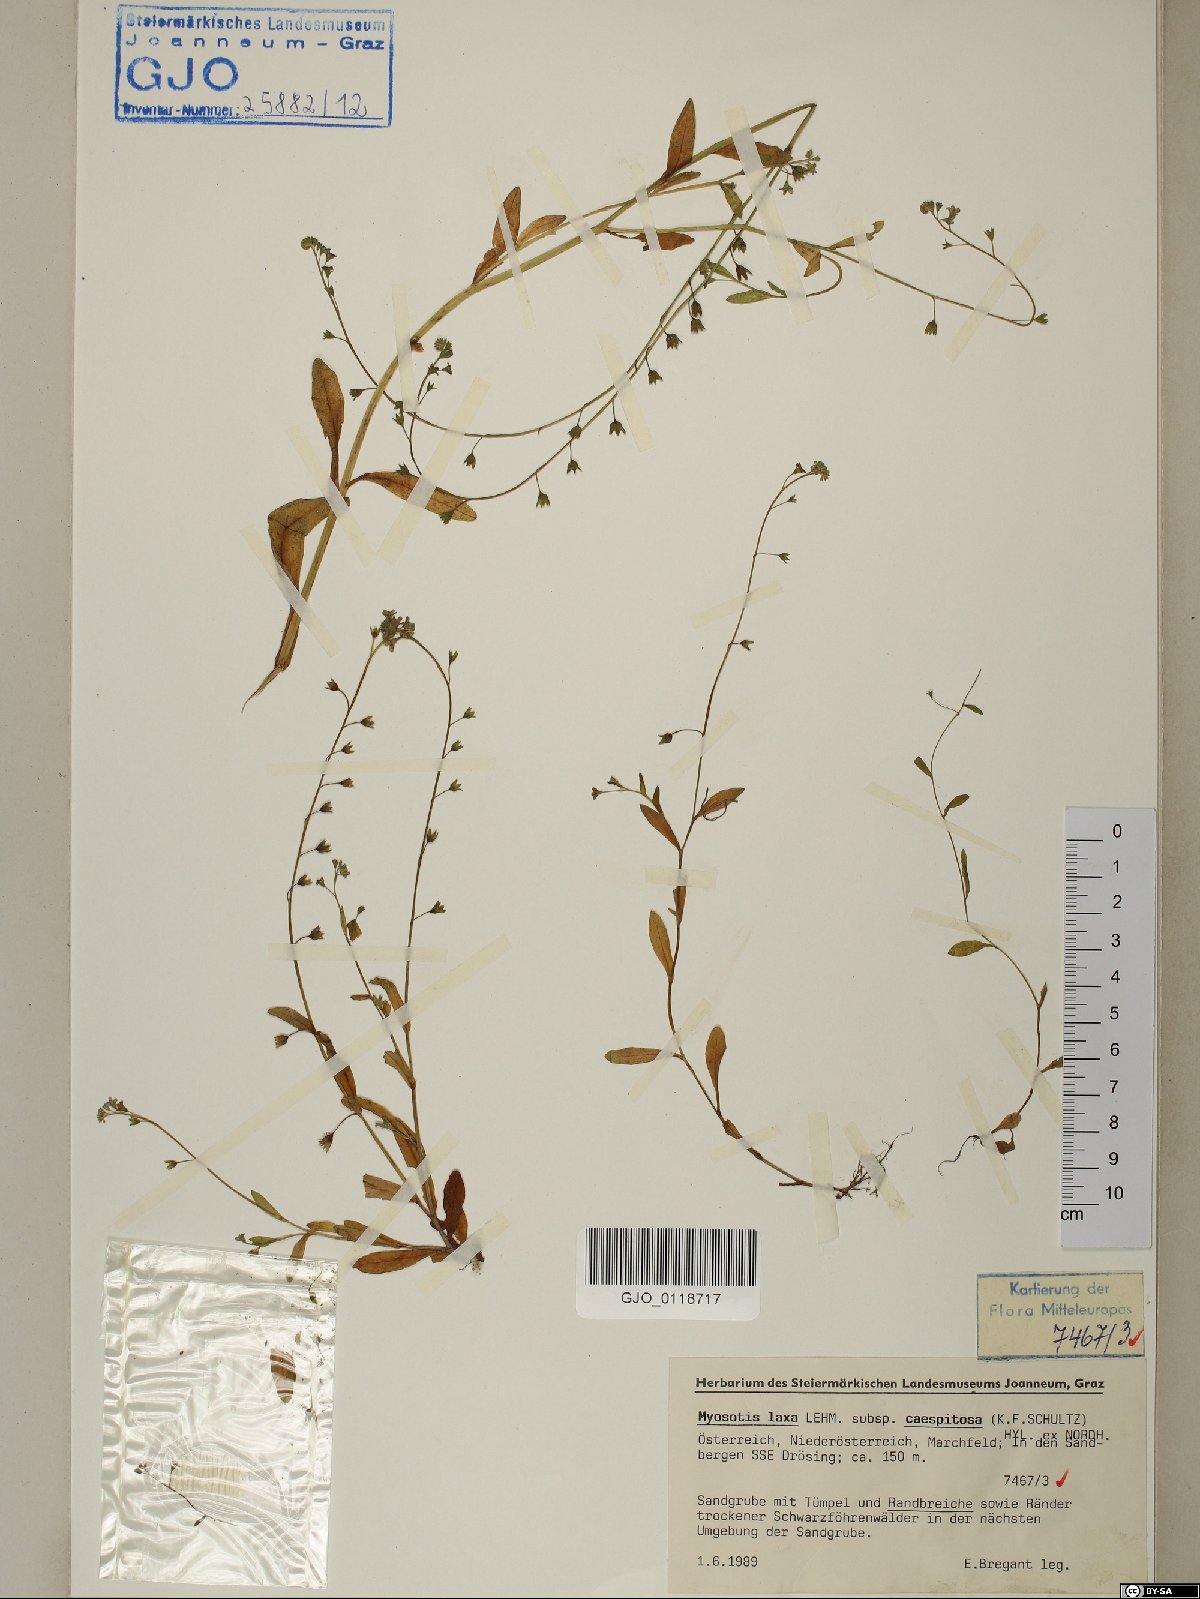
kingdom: Plantae
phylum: Tracheophyta
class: Magnoliopsida
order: Boraginales
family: Boraginaceae
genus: Myosotis
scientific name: Myosotis laxa
